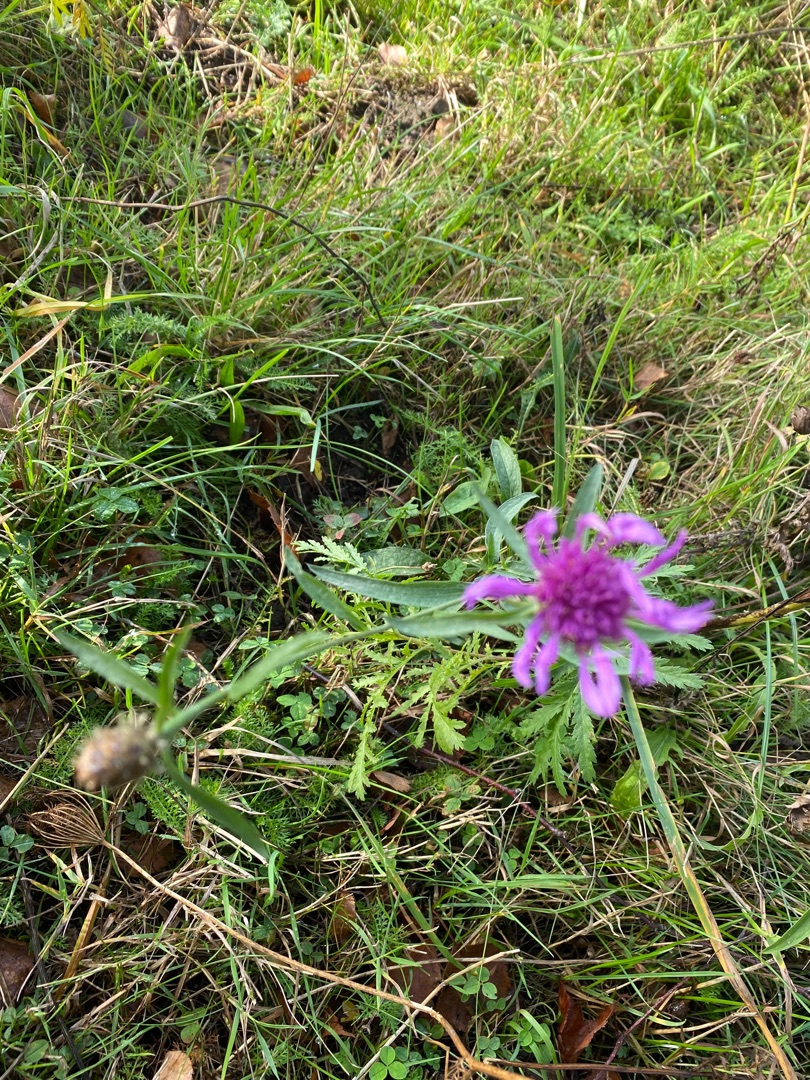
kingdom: Plantae
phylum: Tracheophyta
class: Magnoliopsida
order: Asterales
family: Asteraceae
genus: Centaurea
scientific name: Centaurea jacea
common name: Almindelig knopurt
